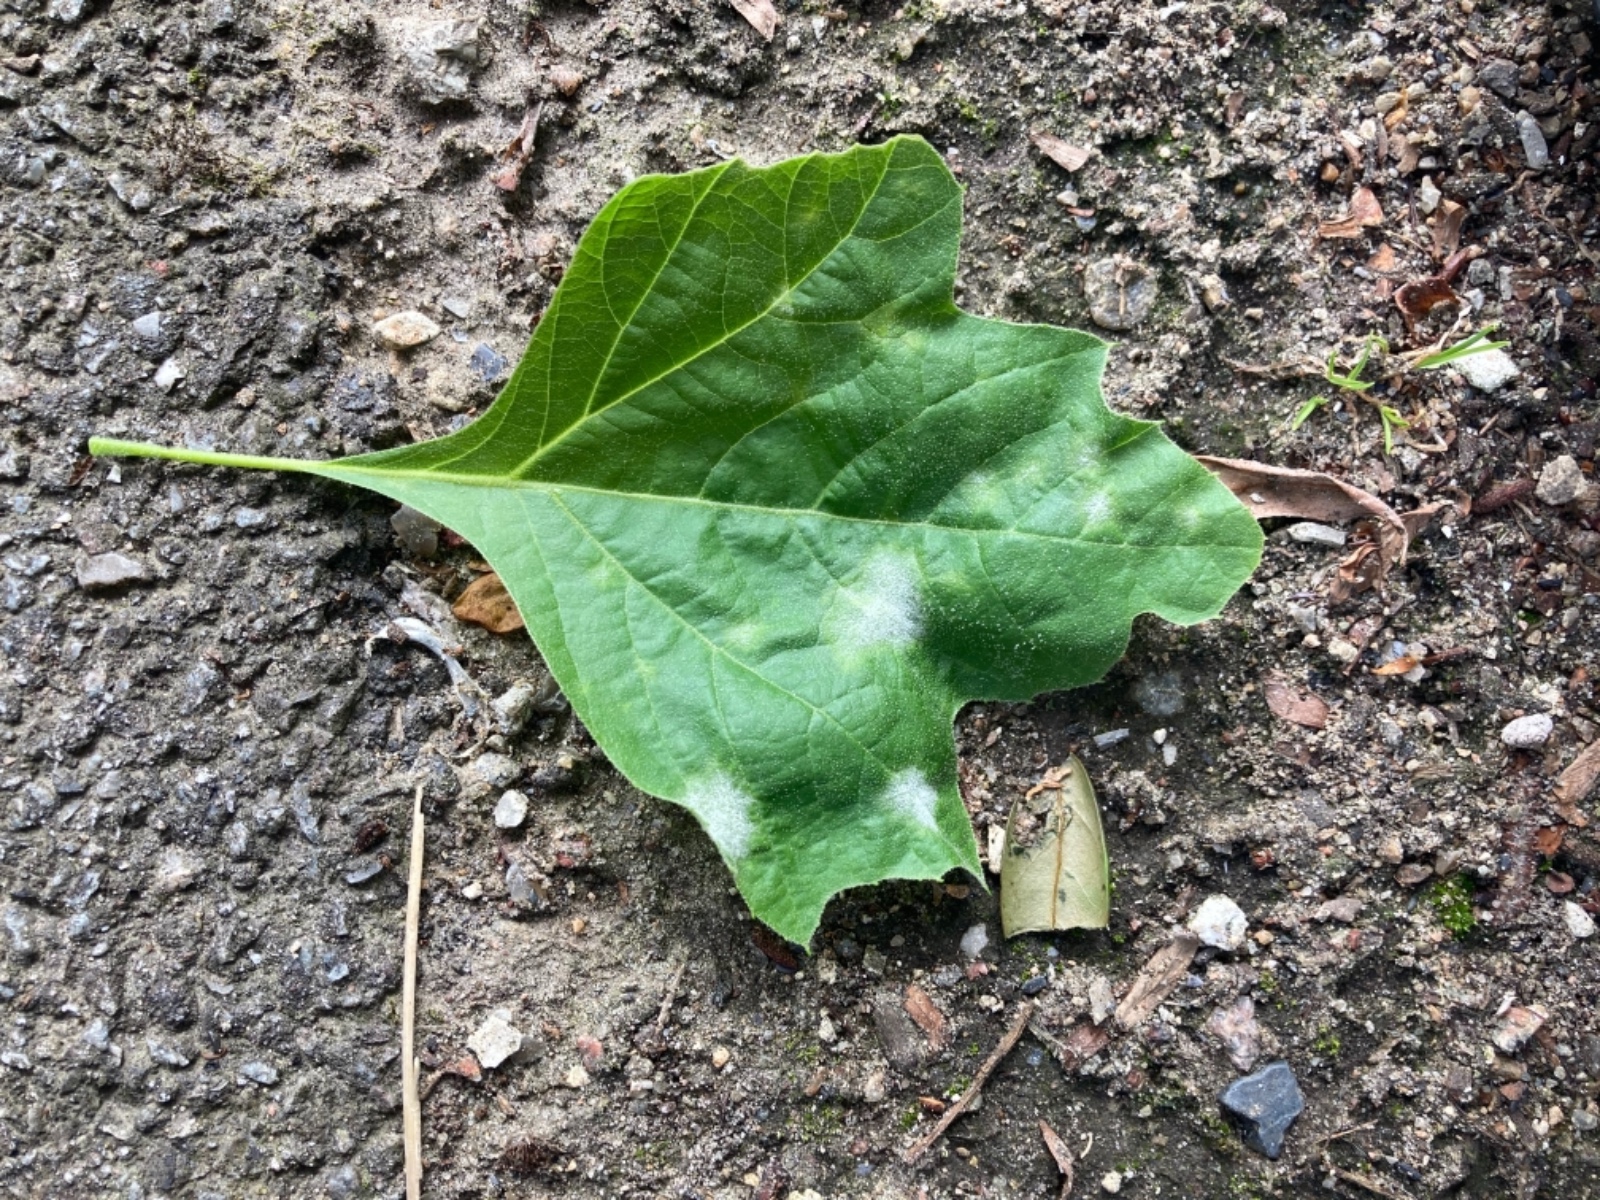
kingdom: Fungi
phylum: Ascomycota
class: Leotiomycetes
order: Helotiales
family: Erysiphaceae
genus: Erysiphe
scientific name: Erysiphe platani
